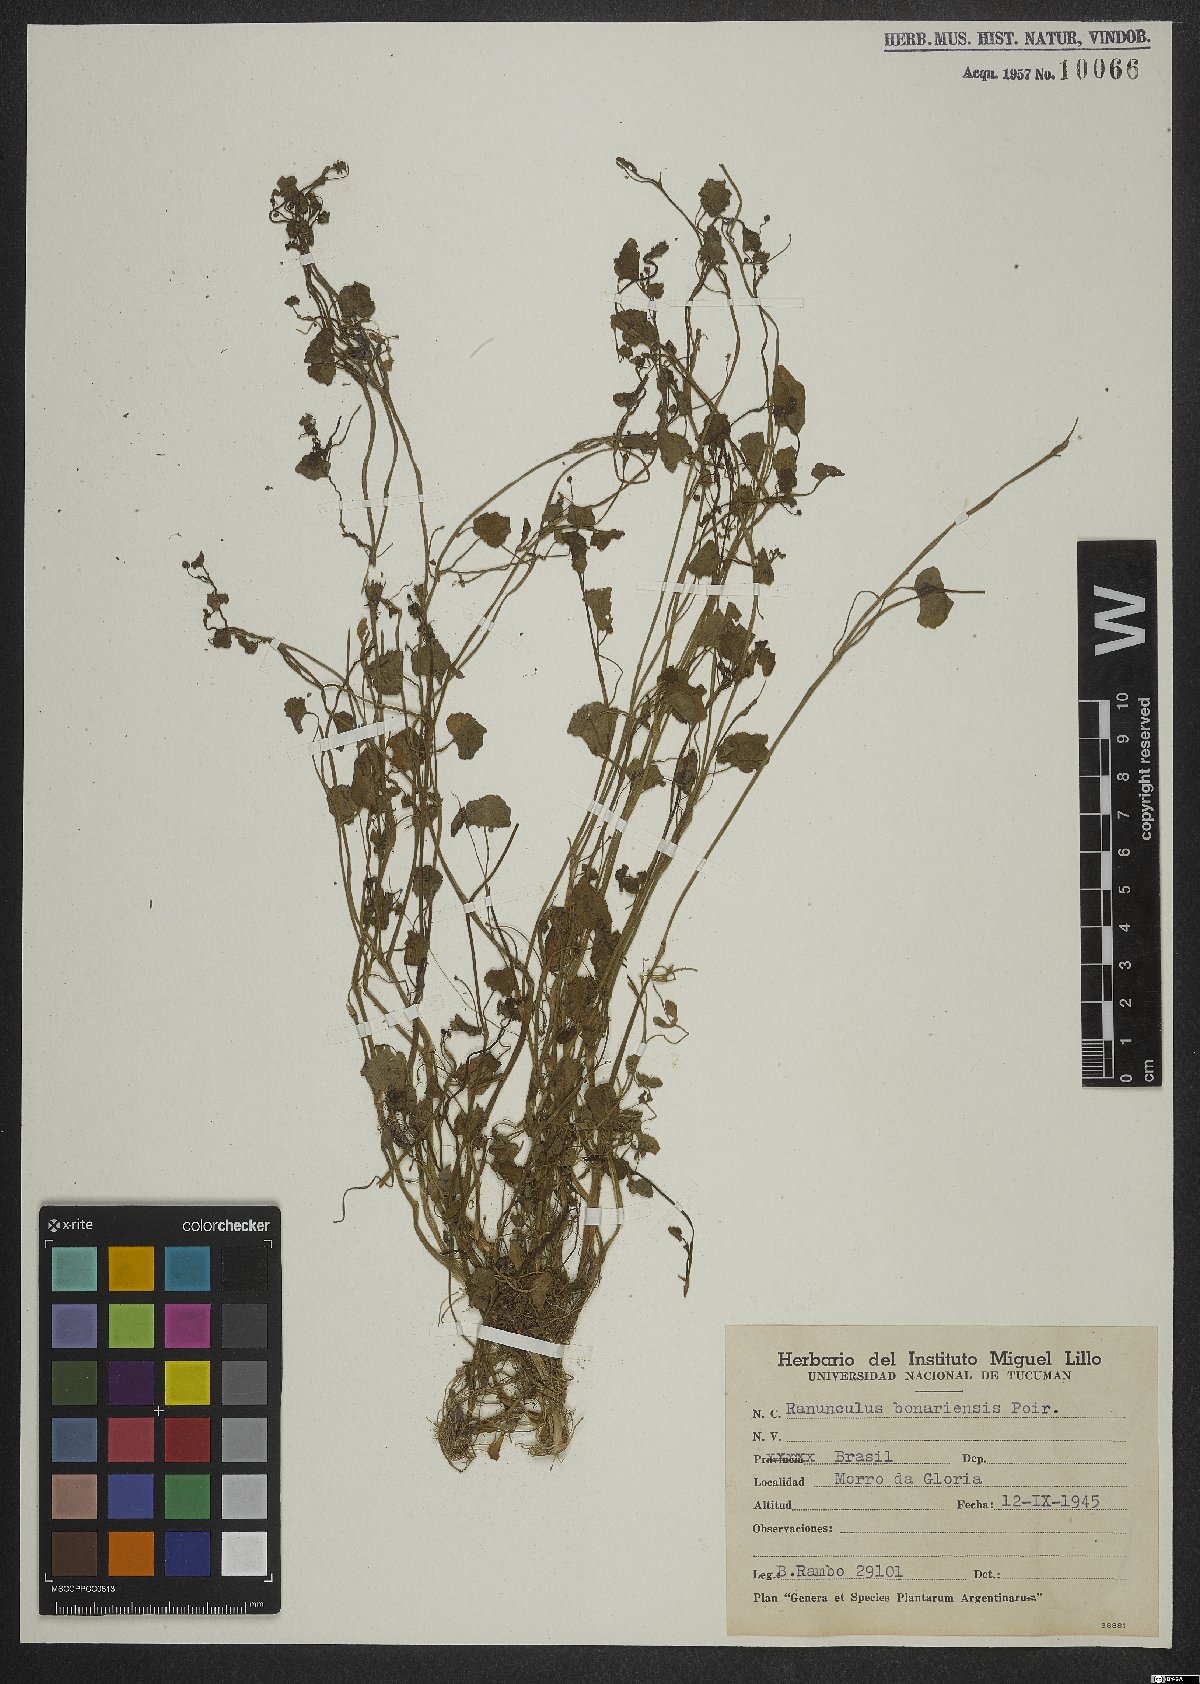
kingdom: Plantae
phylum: Tracheophyta
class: Magnoliopsida
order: Ranunculales
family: Ranunculaceae
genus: Ranunculus
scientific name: Ranunculus bonariensis
